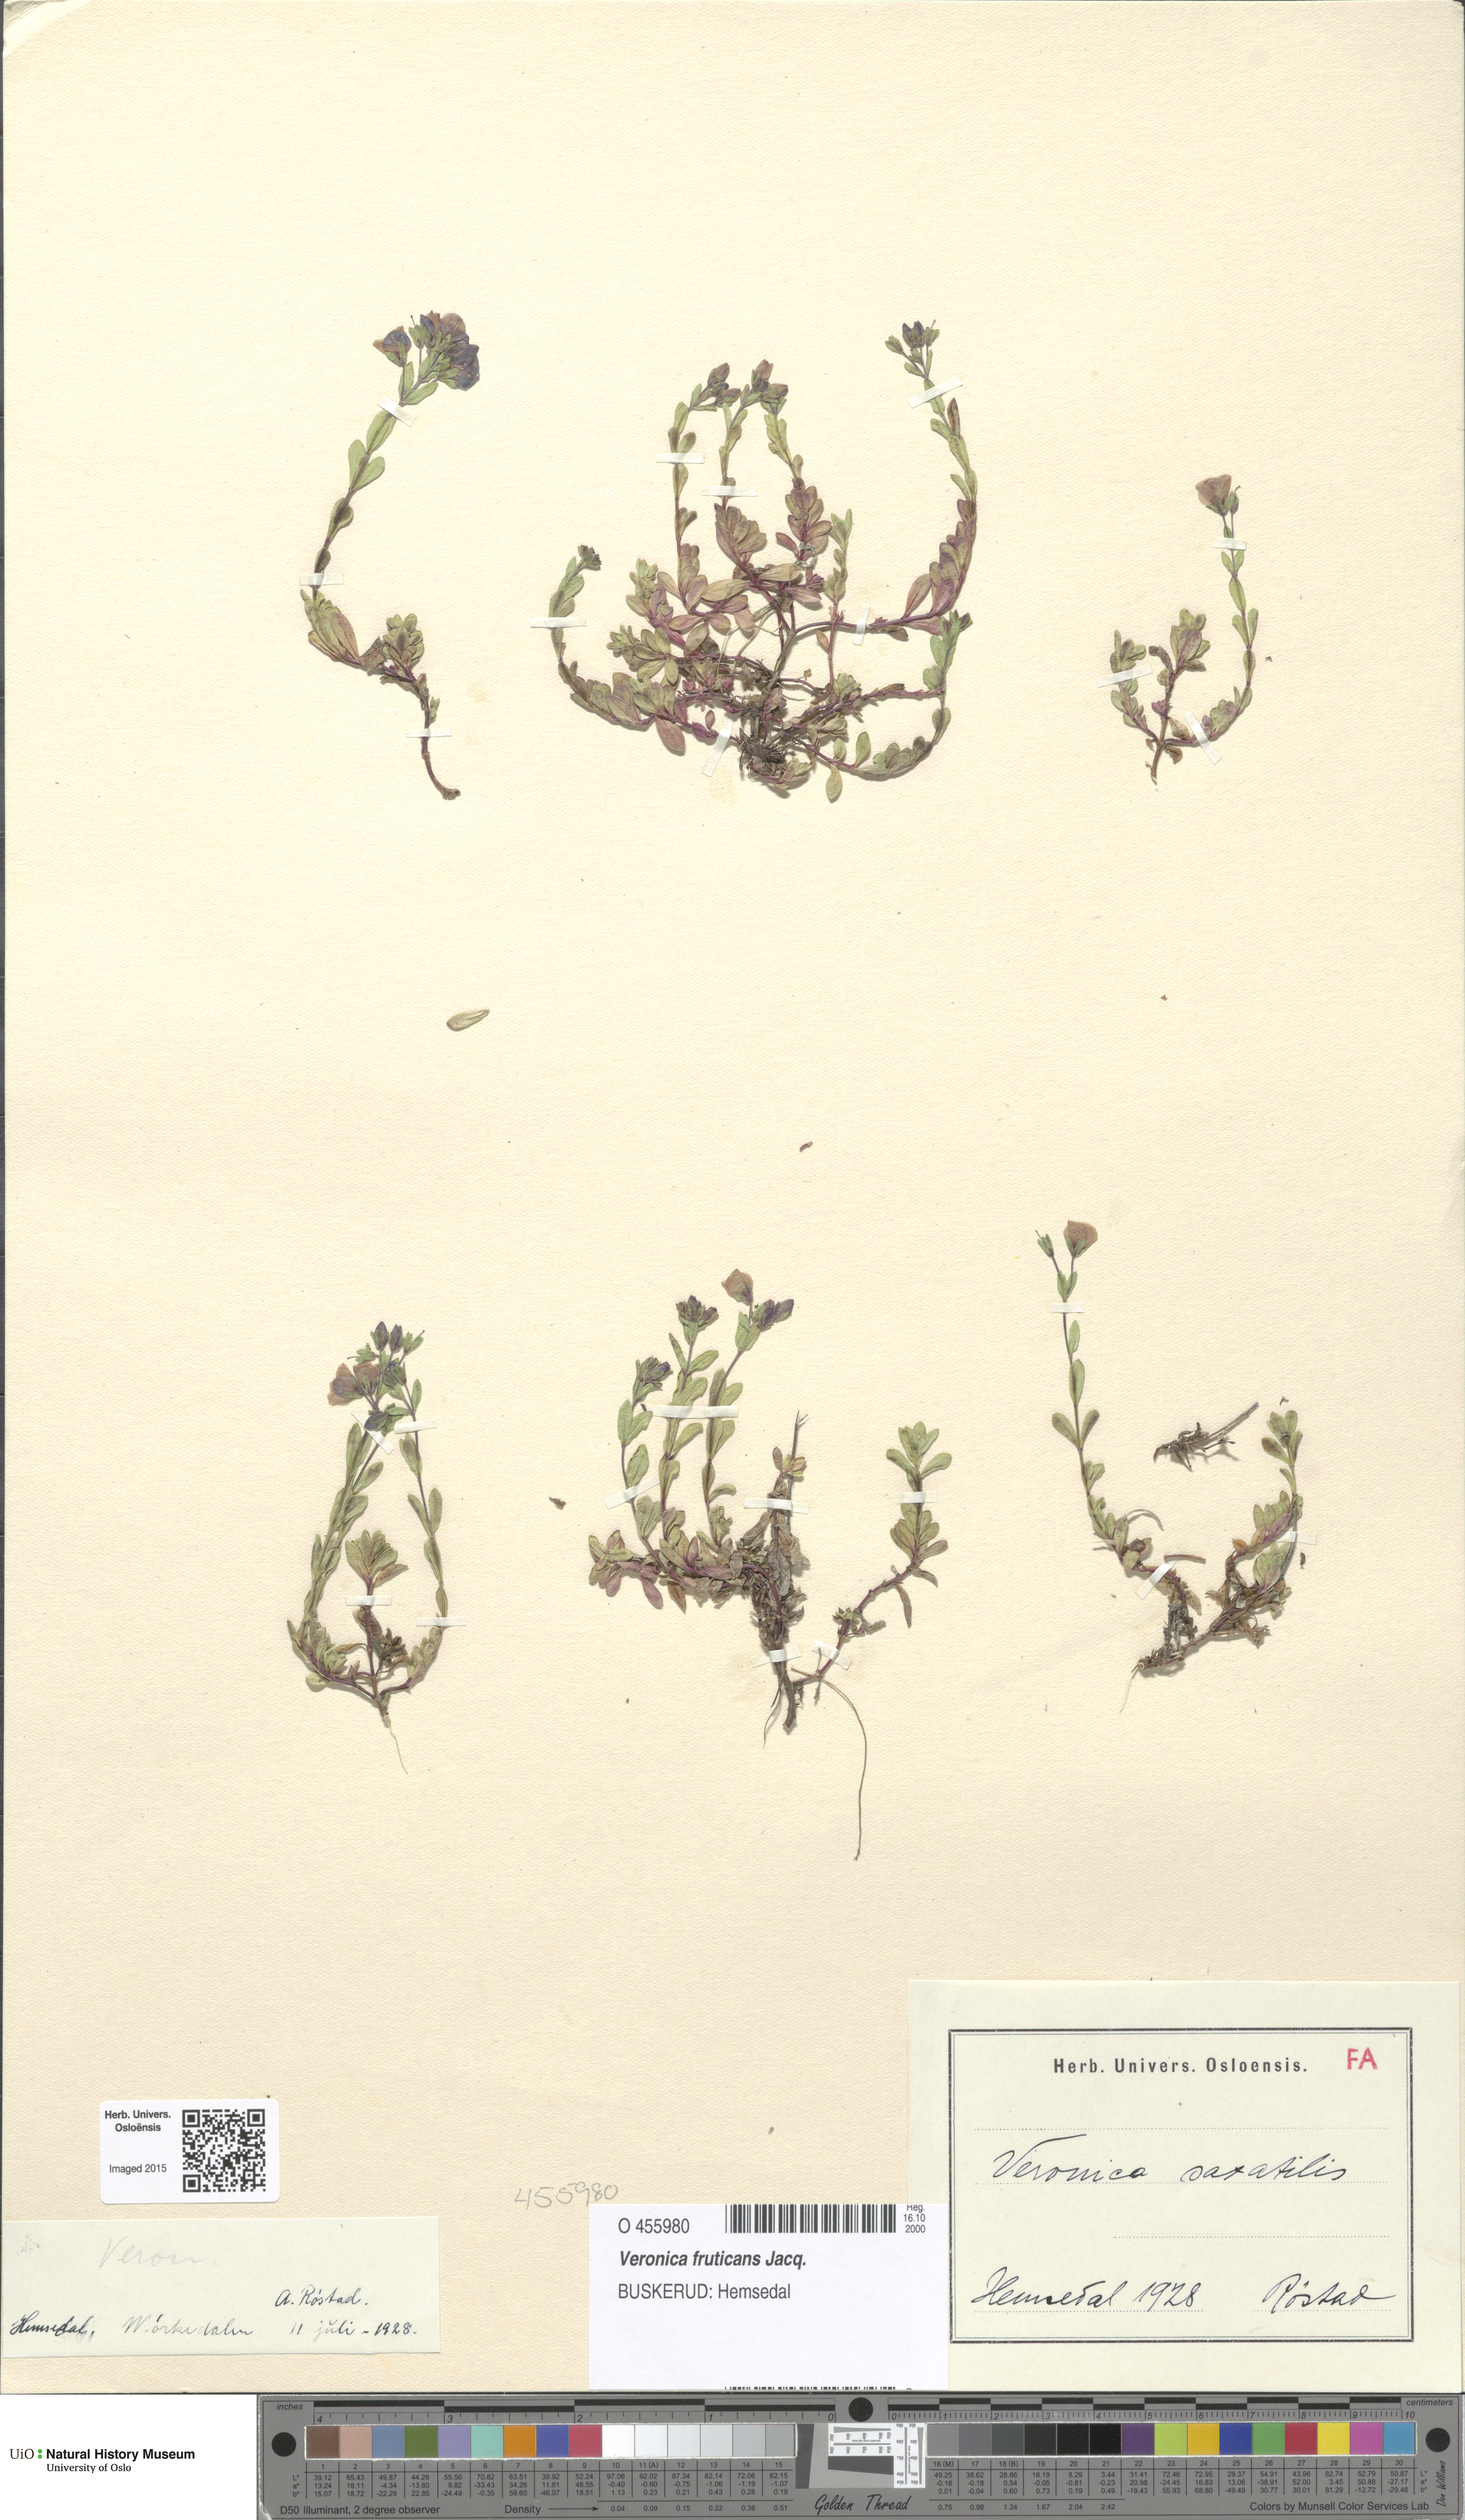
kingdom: Plantae
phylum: Tracheophyta
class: Magnoliopsida
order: Lamiales
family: Plantaginaceae
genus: Veronica
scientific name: Veronica fruticans
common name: Rock speedwell
